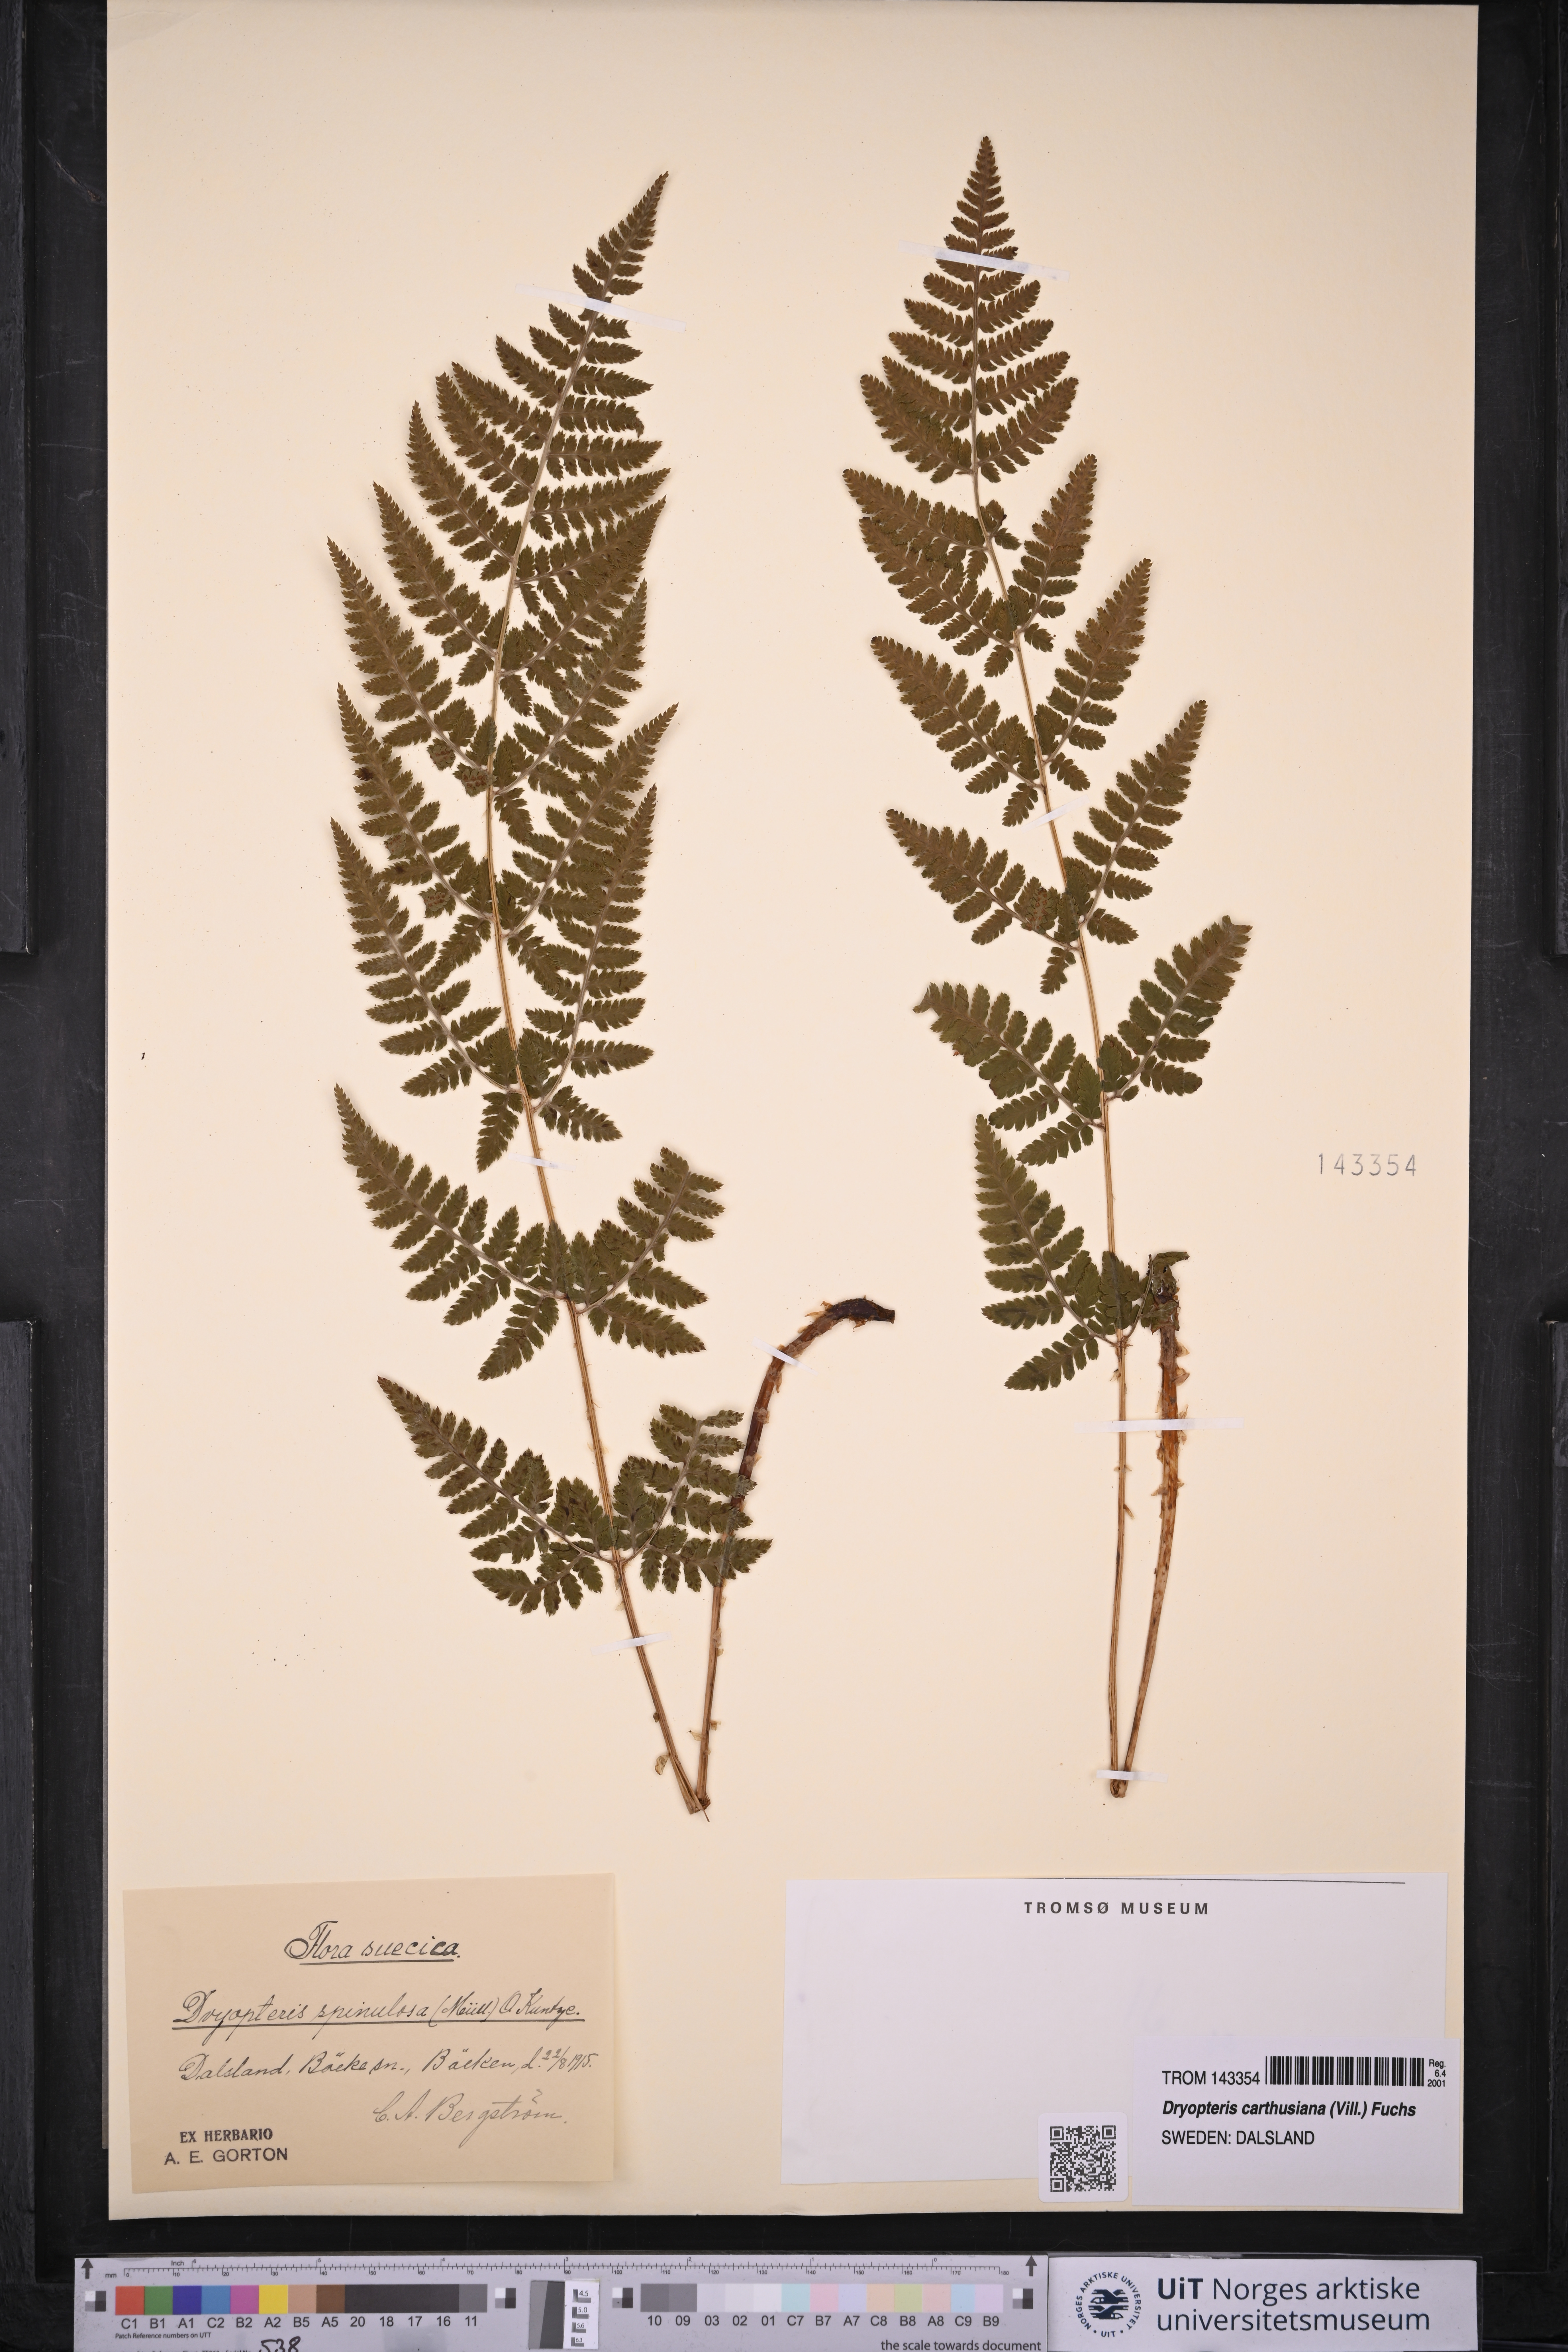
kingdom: Plantae
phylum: Tracheophyta
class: Polypodiopsida
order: Polypodiales
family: Dryopteridaceae
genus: Dryopteris
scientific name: Dryopteris carthusiana
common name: Narrow buckler-fern
